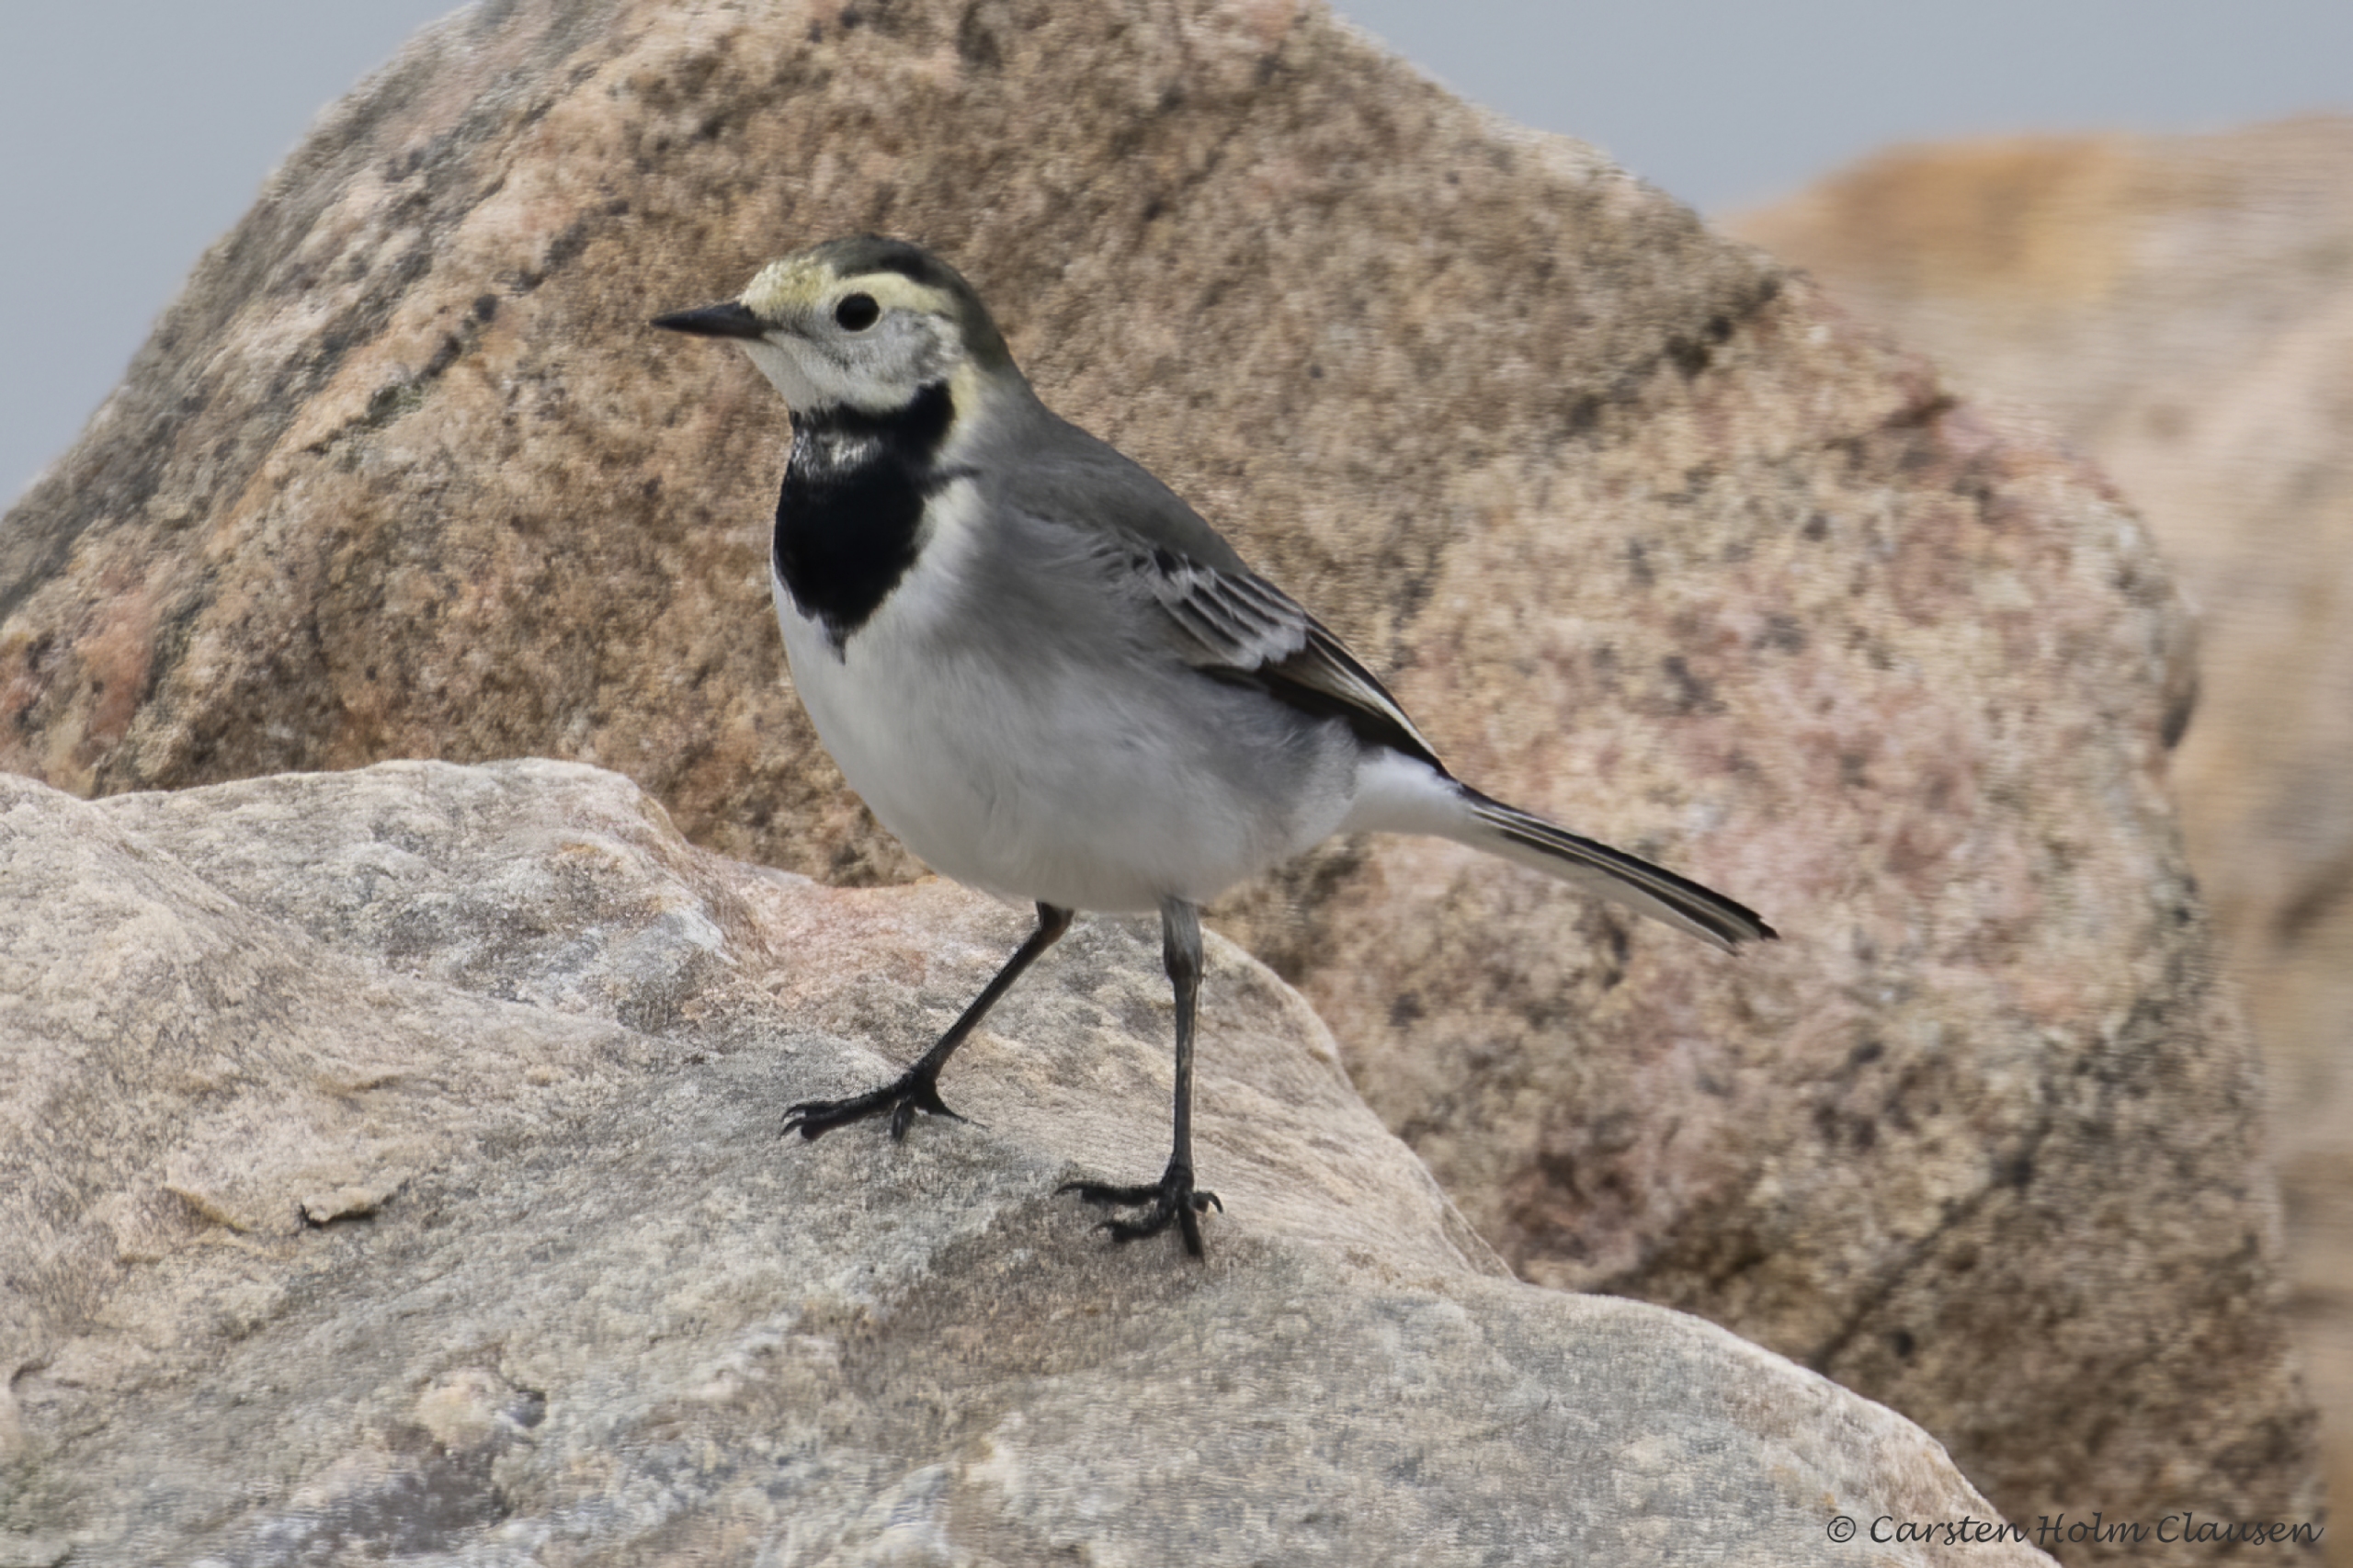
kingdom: Animalia
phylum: Chordata
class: Aves
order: Passeriformes
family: Motacillidae
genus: Motacilla
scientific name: Motacilla alba
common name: Hvid vipstjert
